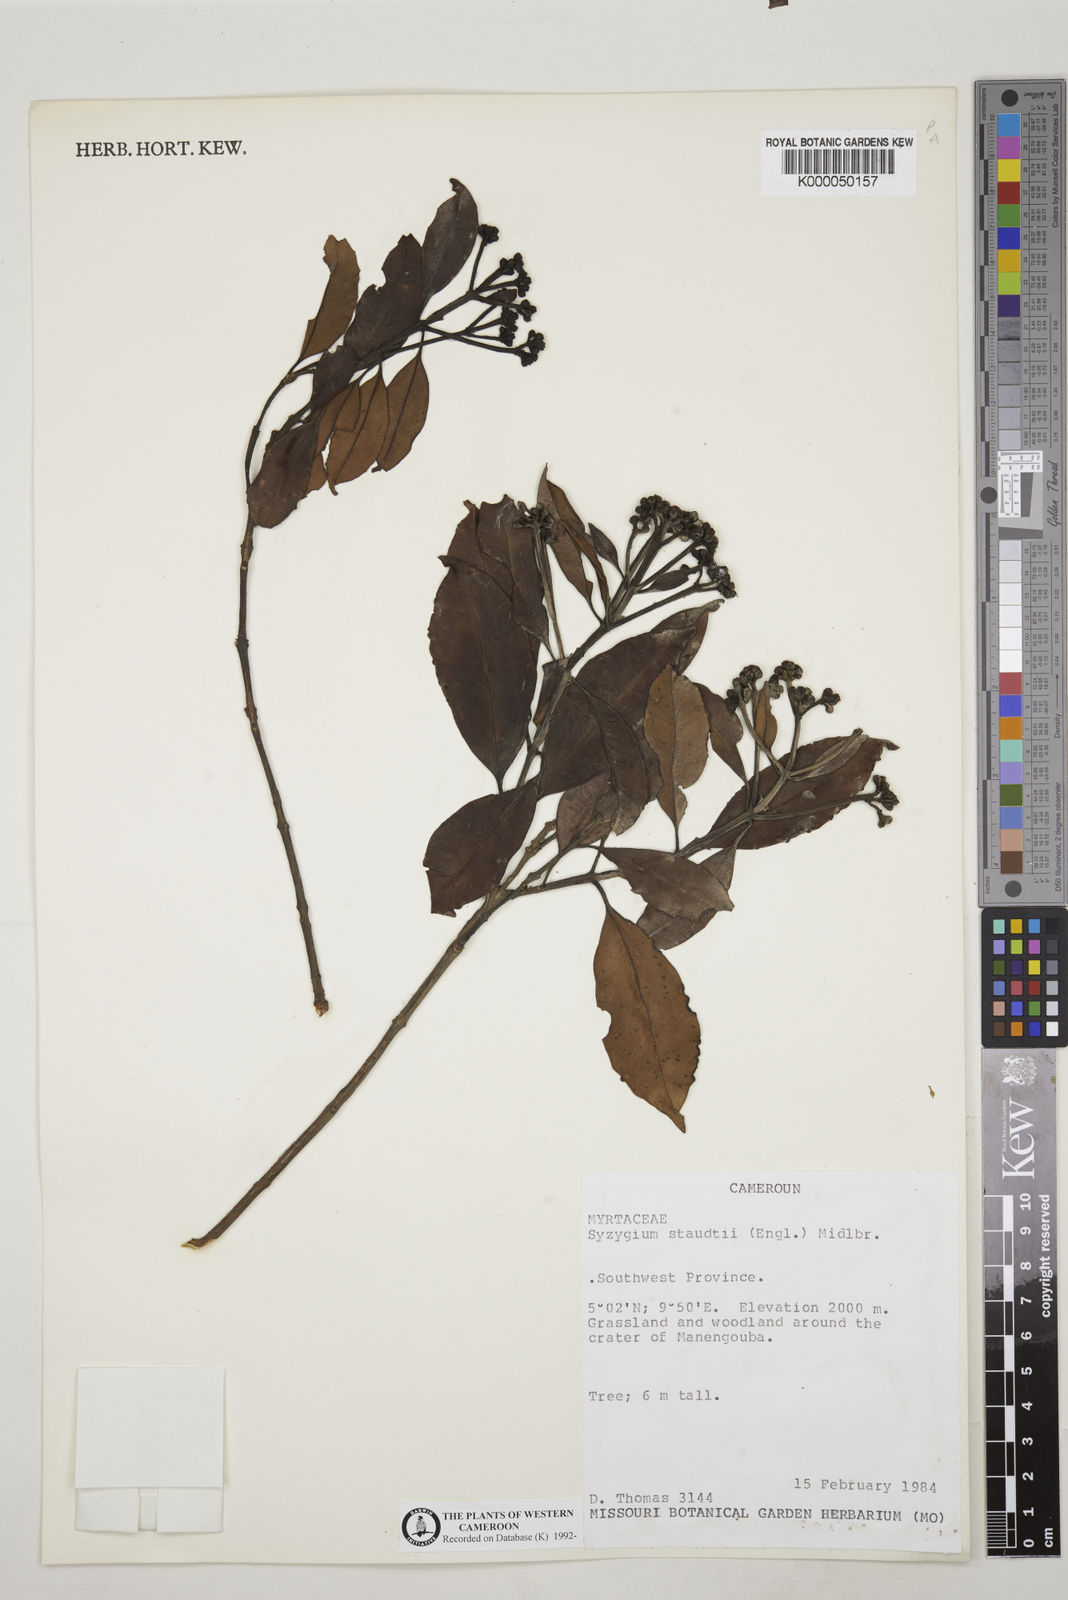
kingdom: Plantae
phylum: Tracheophyta
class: Magnoliopsida
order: Myrtales
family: Myrtaceae
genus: Syzygium
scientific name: Syzygium staudtii
